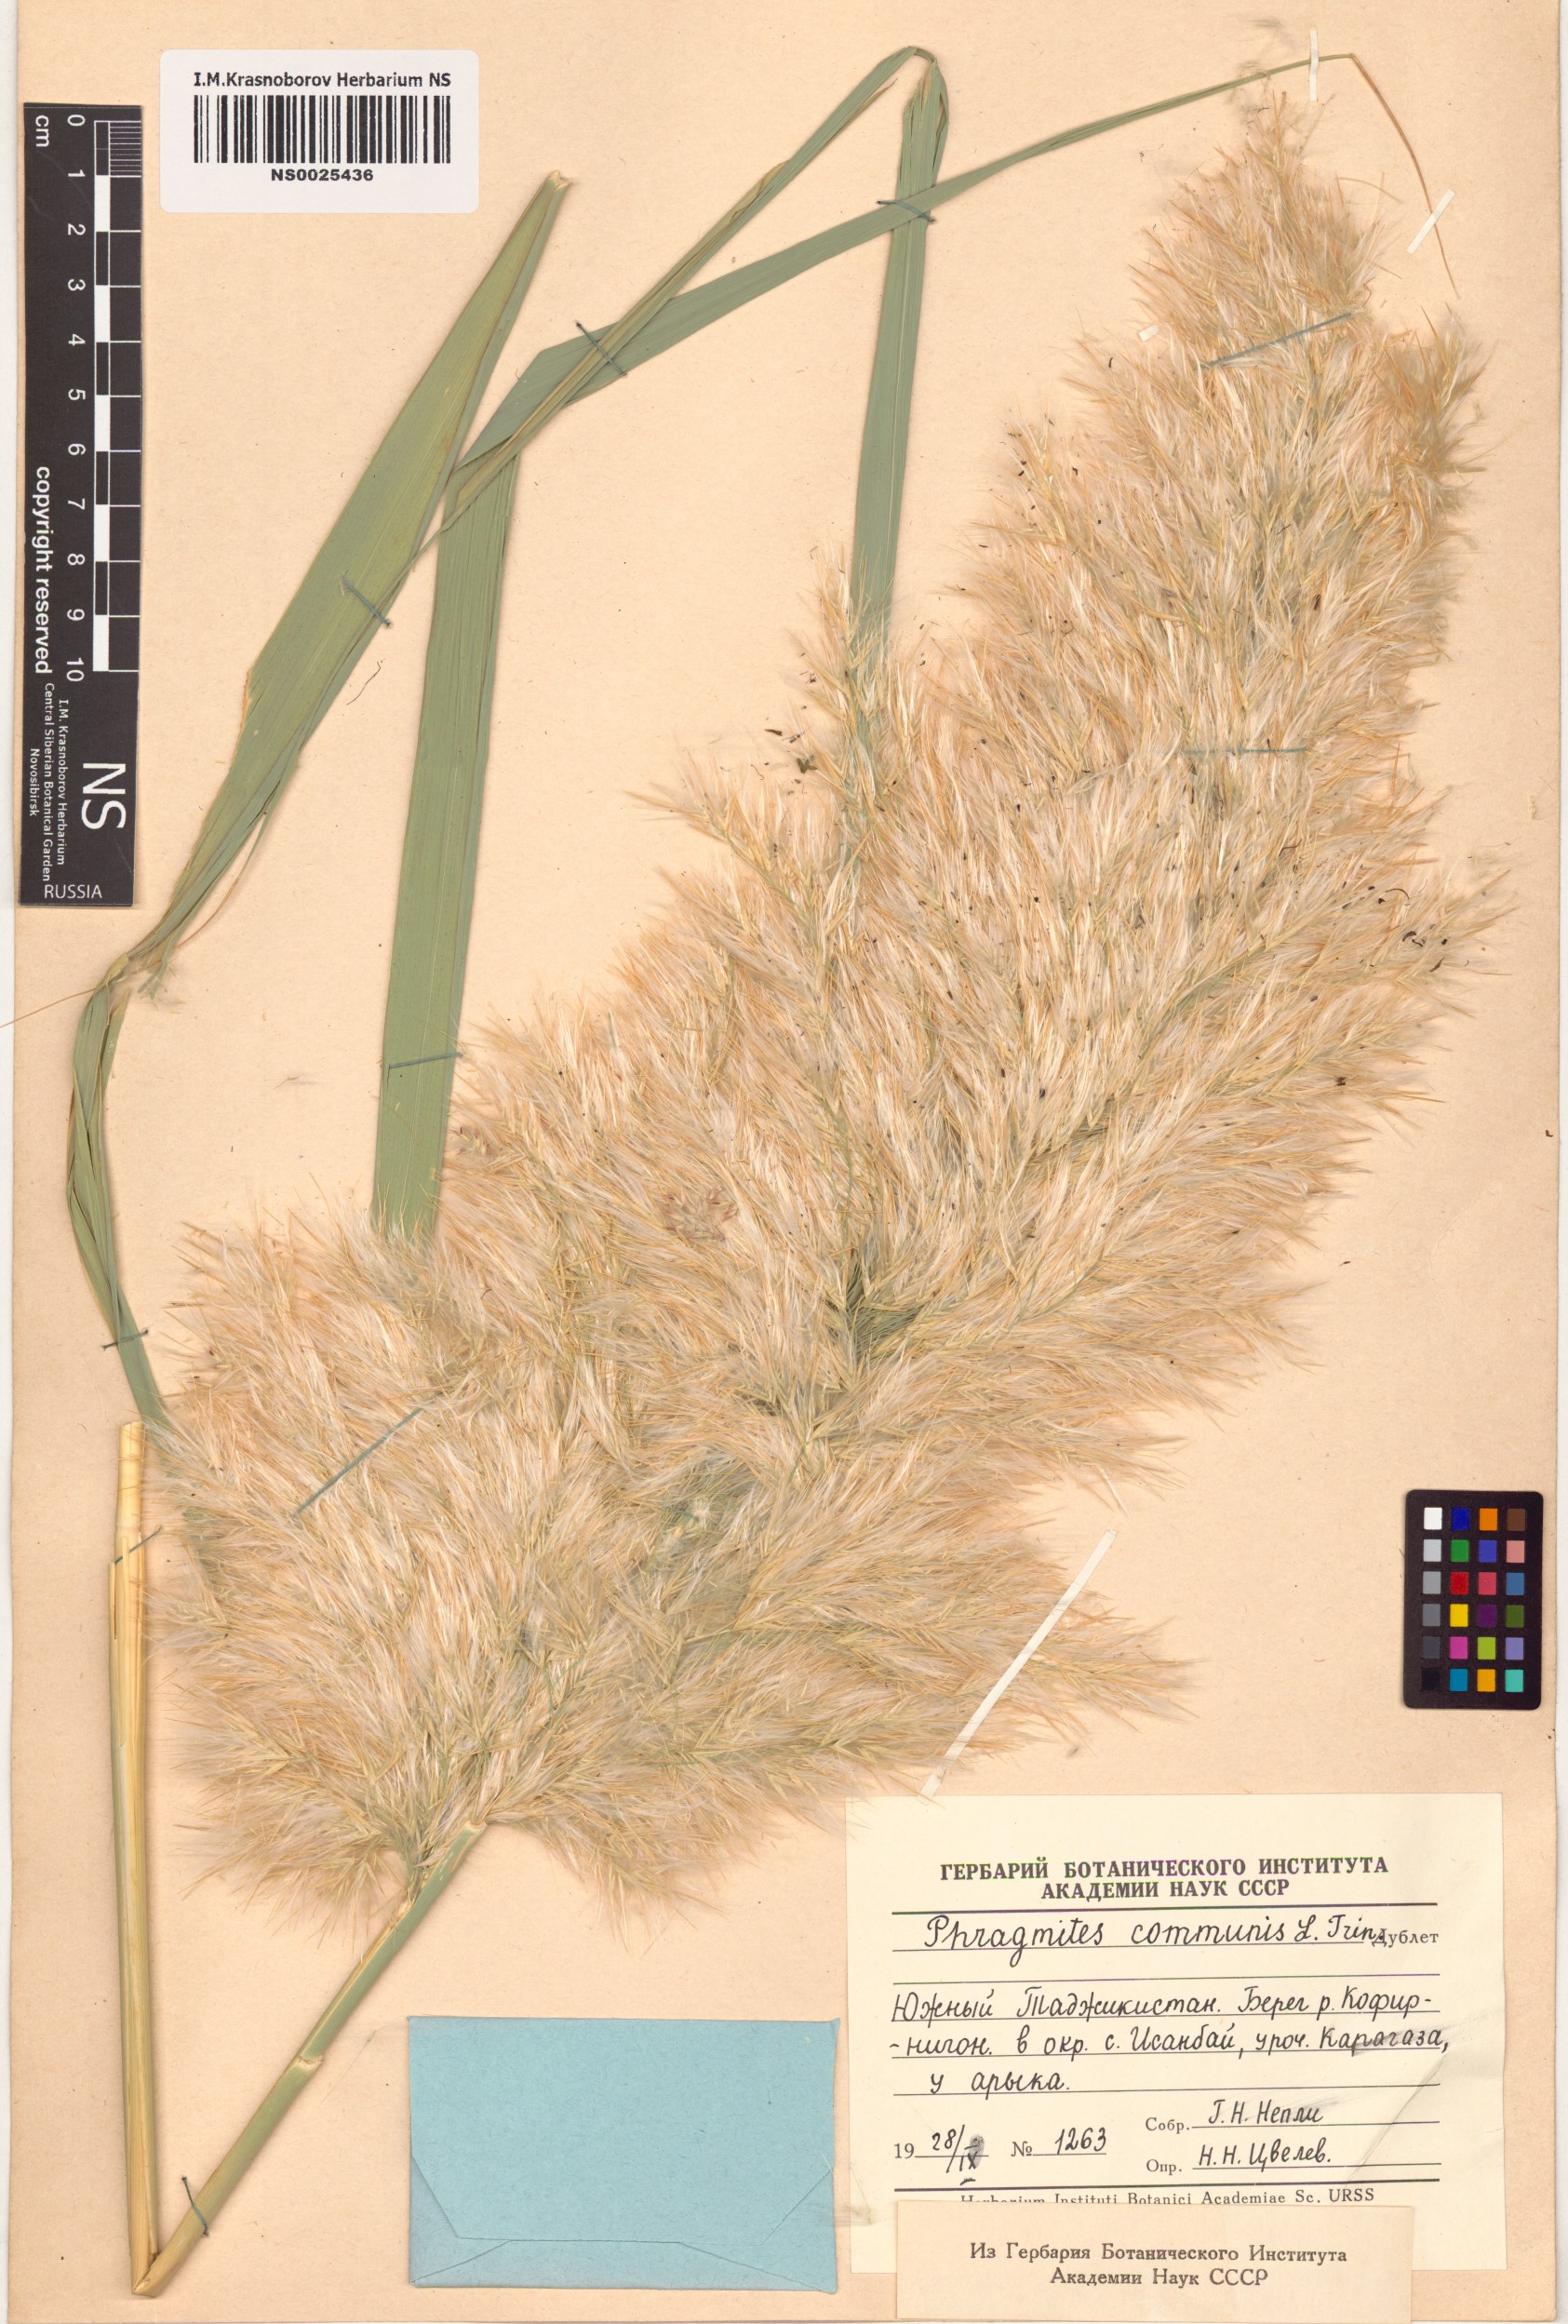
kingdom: Plantae
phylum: Tracheophyta
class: Liliopsida
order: Poales
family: Poaceae
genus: Phragmites
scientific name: Phragmites australis
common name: Common reed
